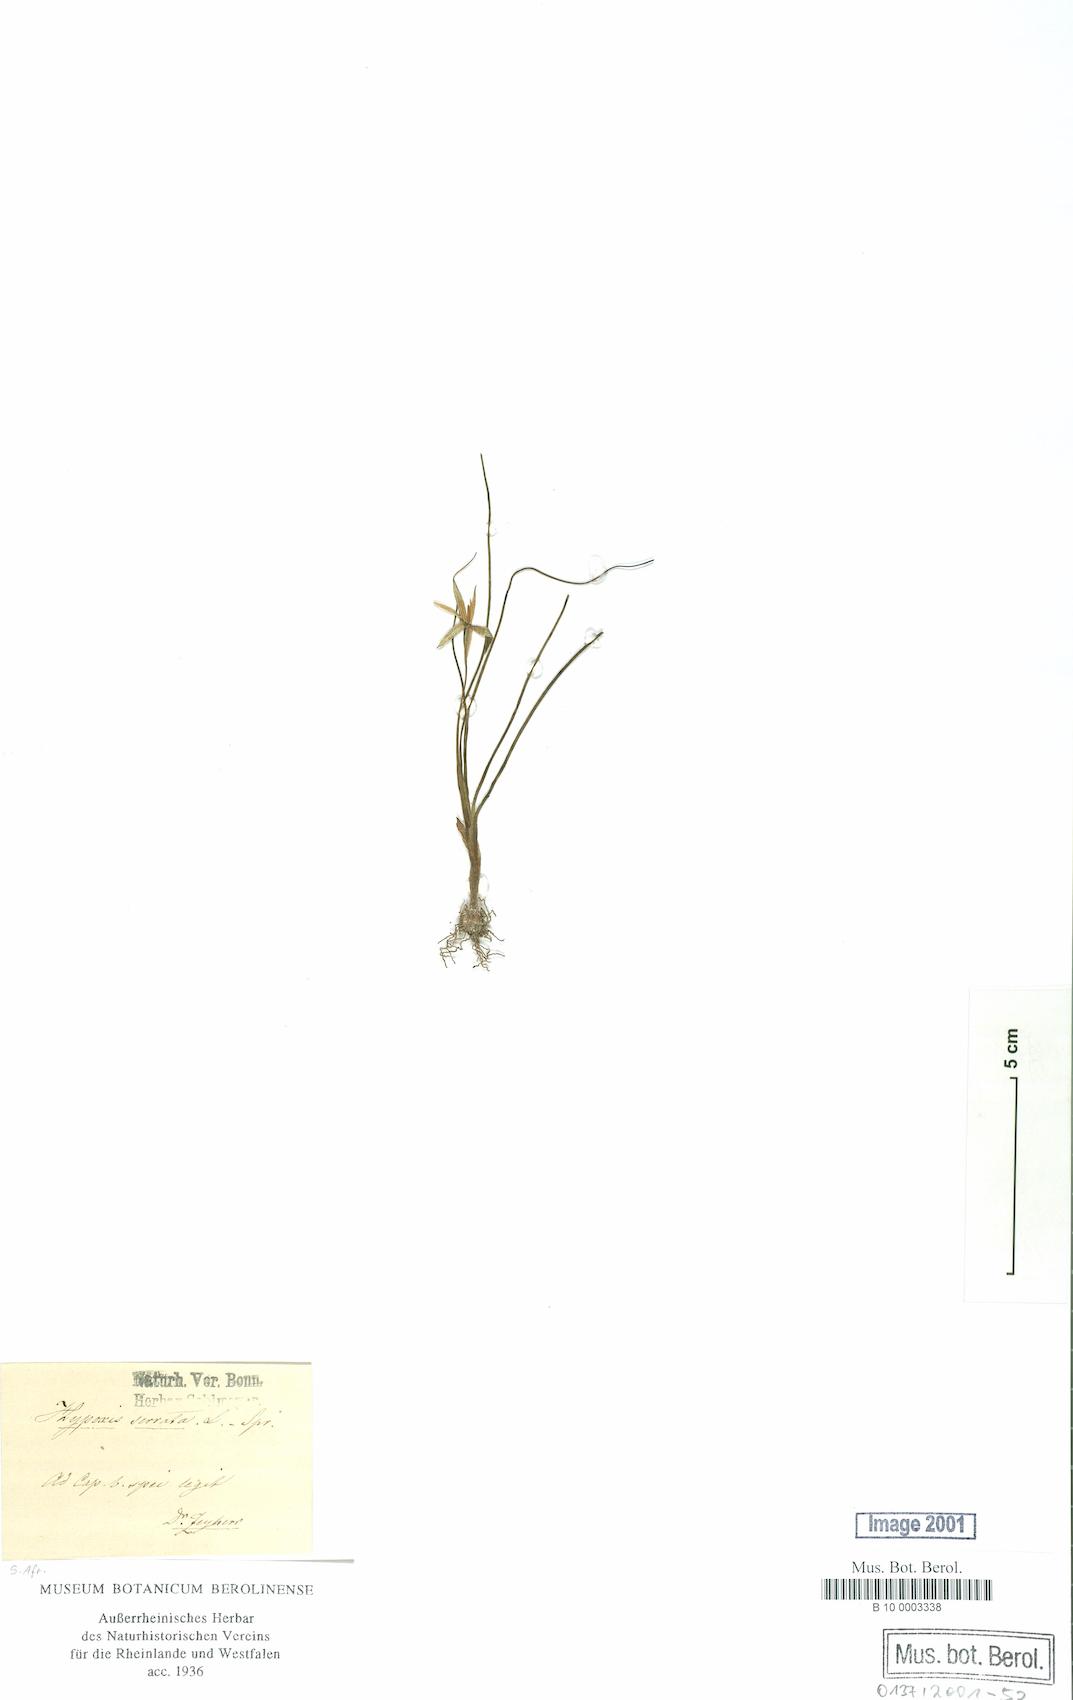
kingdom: Plantae
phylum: Tracheophyta
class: Liliopsida
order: Asparagales
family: Hypoxidaceae
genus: Pauridia
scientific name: Pauridia serrata
